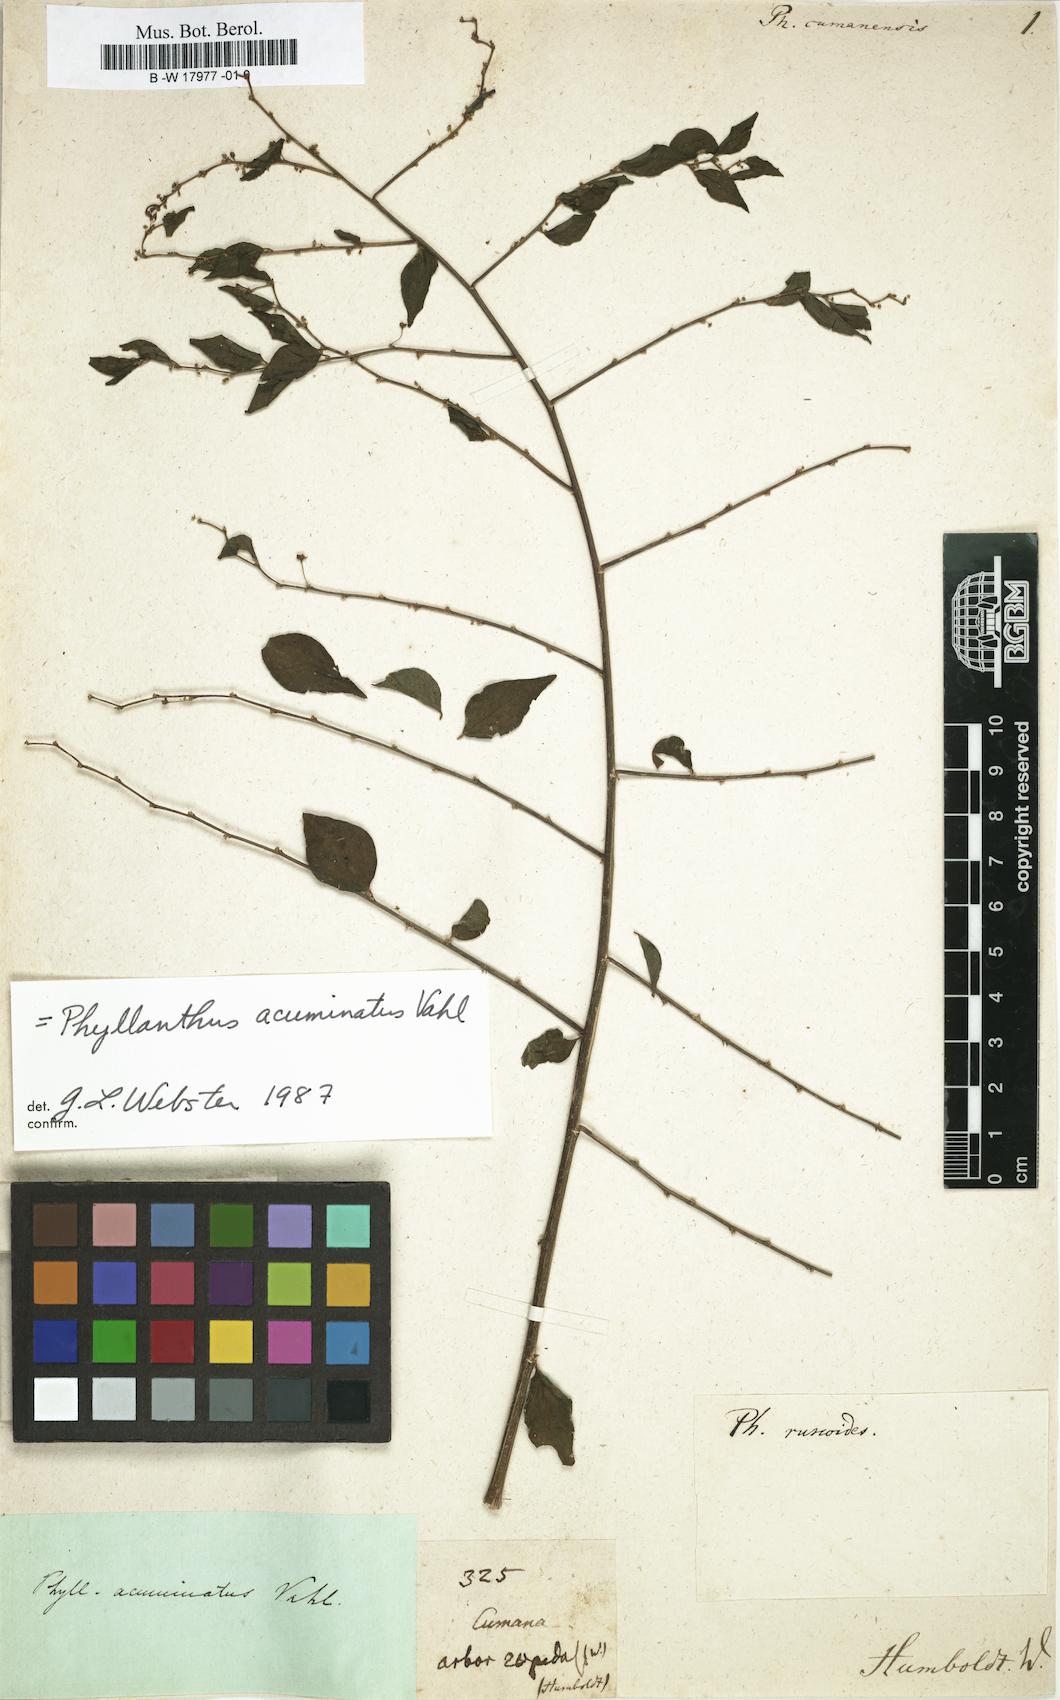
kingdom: Plantae
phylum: Tracheophyta
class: Magnoliopsida
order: Malpighiales
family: Phyllanthaceae
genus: Phyllanthus
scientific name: Phyllanthus acuminatus
